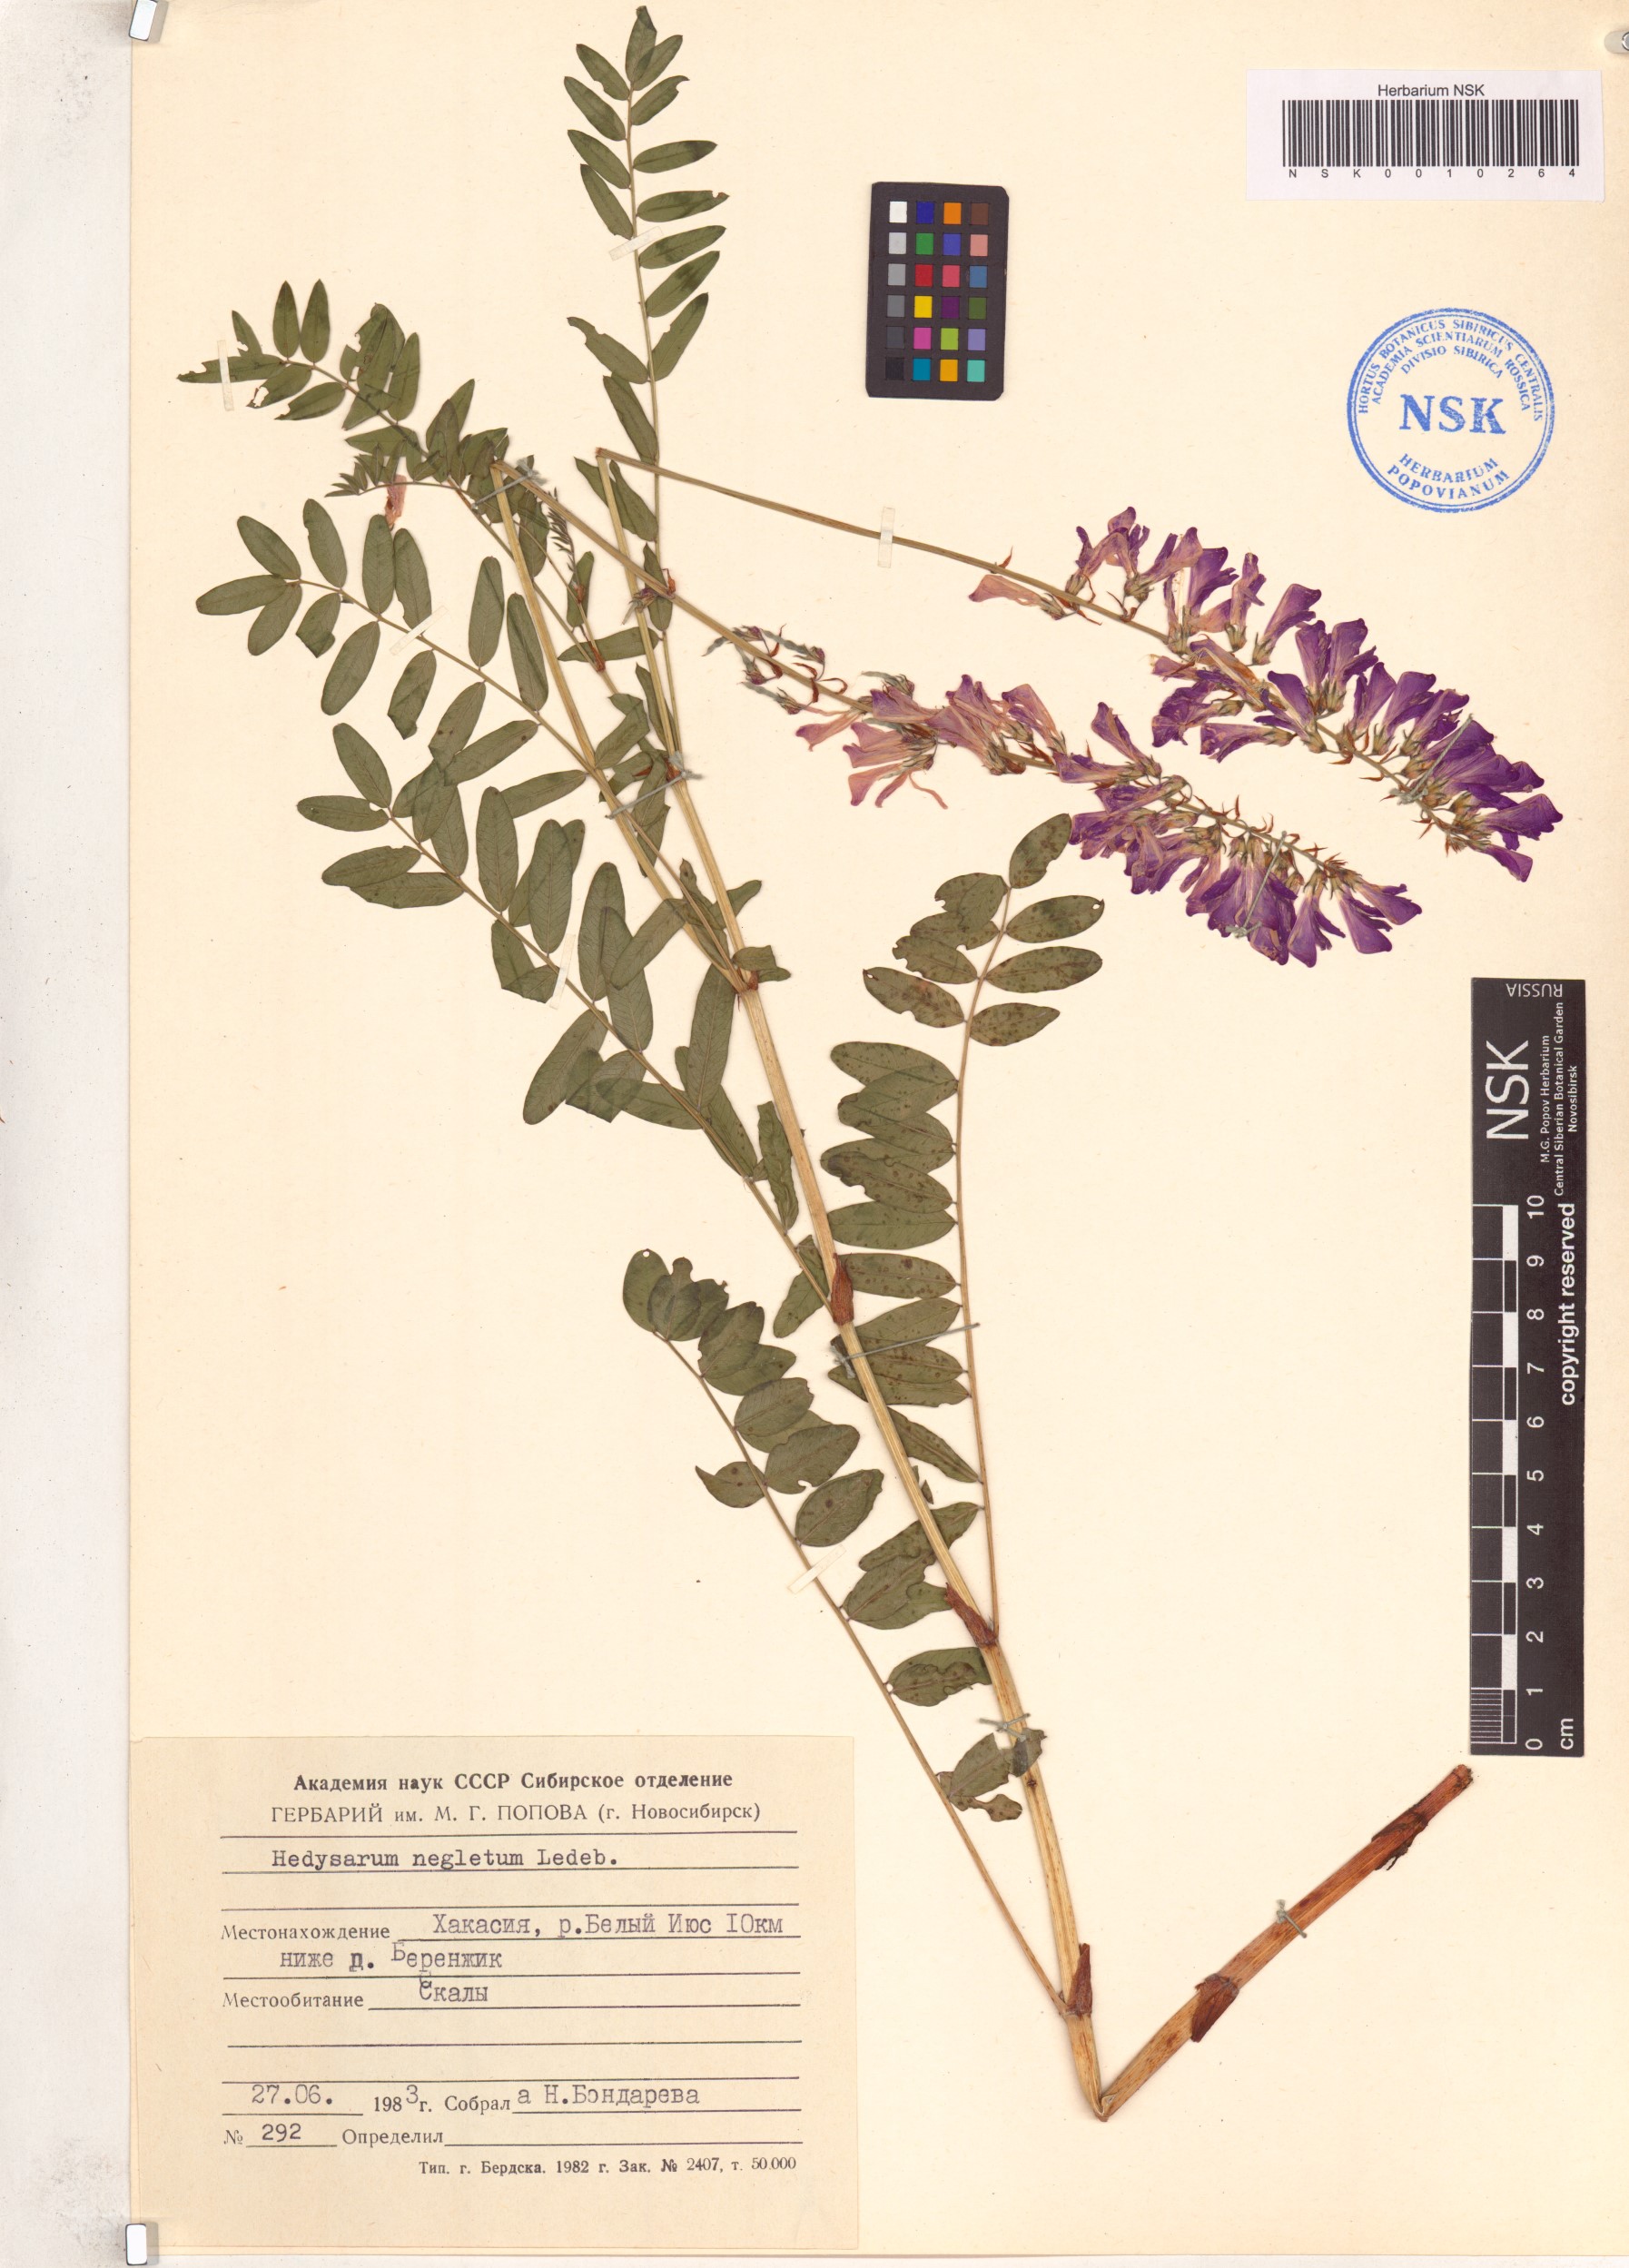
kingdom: Plantae
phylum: Tracheophyta
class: Magnoliopsida
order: Fabales
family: Fabaceae
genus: Hedysarum
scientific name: Hedysarum neglectum
